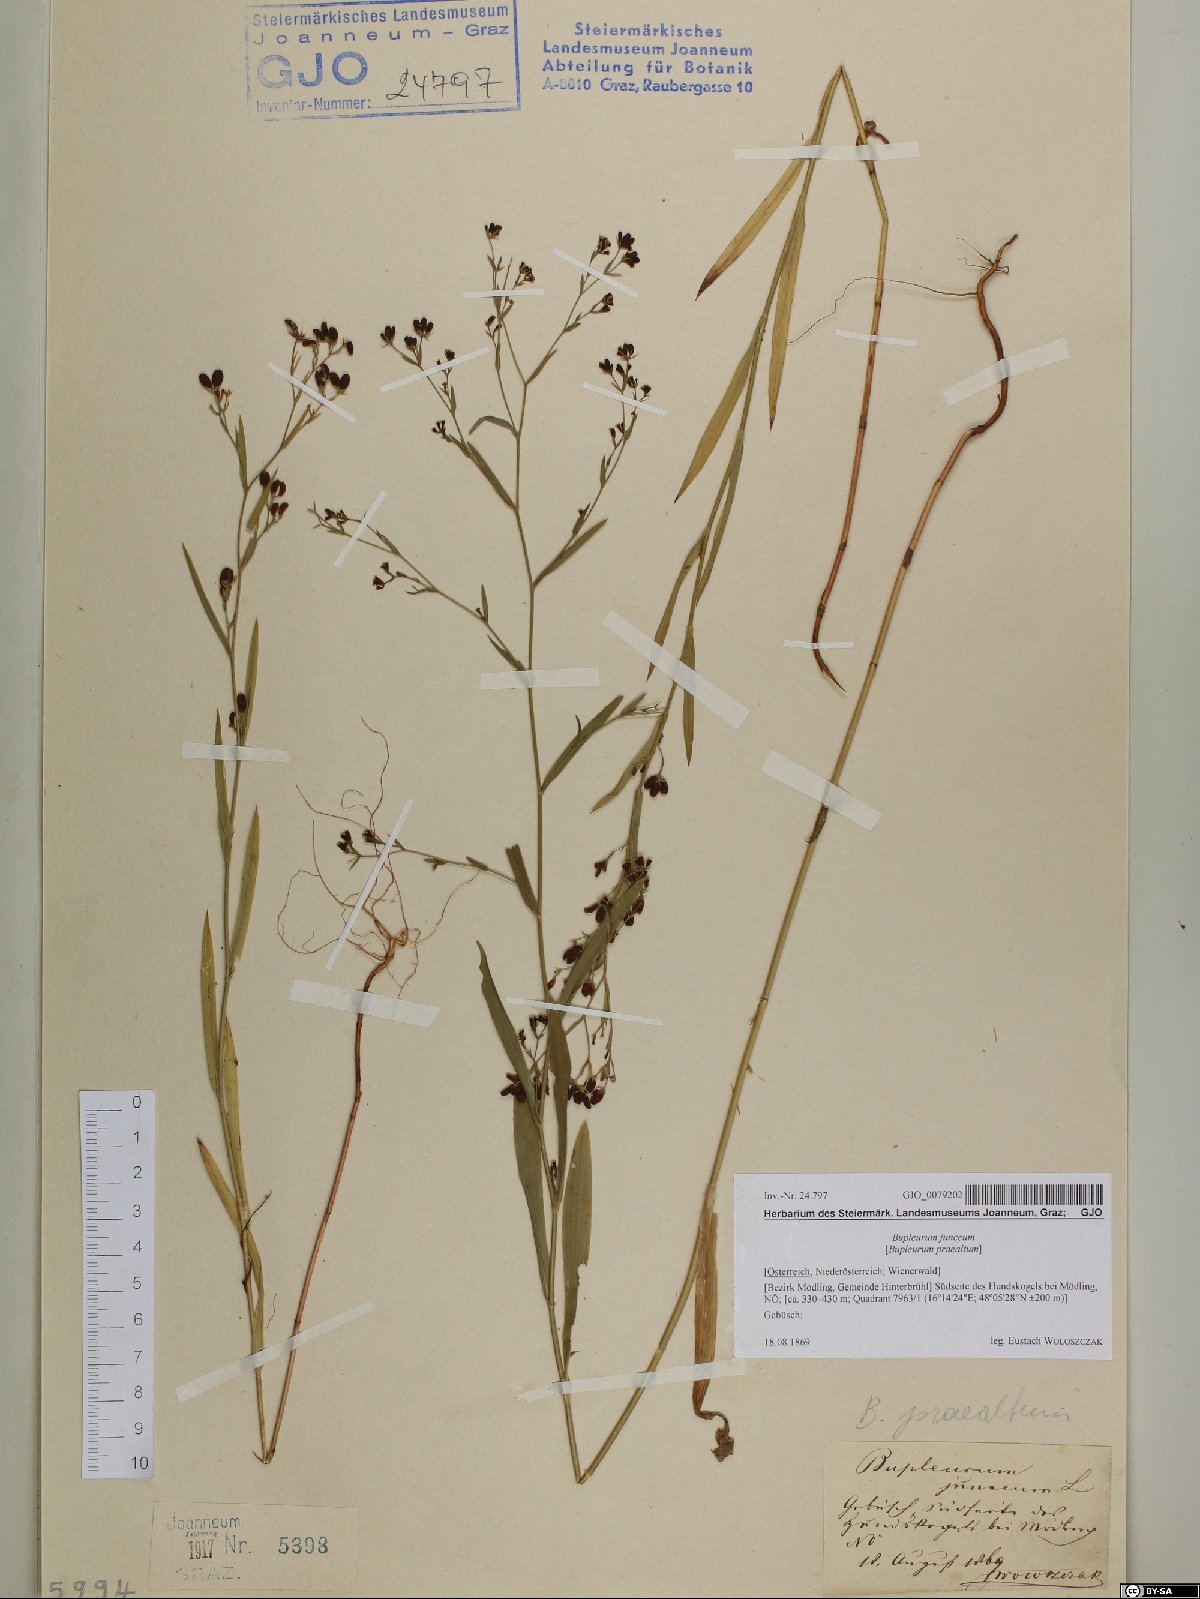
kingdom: Plantae
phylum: Tracheophyta
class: Magnoliopsida
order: Apiales
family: Apiaceae
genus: Bupleurum
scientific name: Bupleurum praealtum
